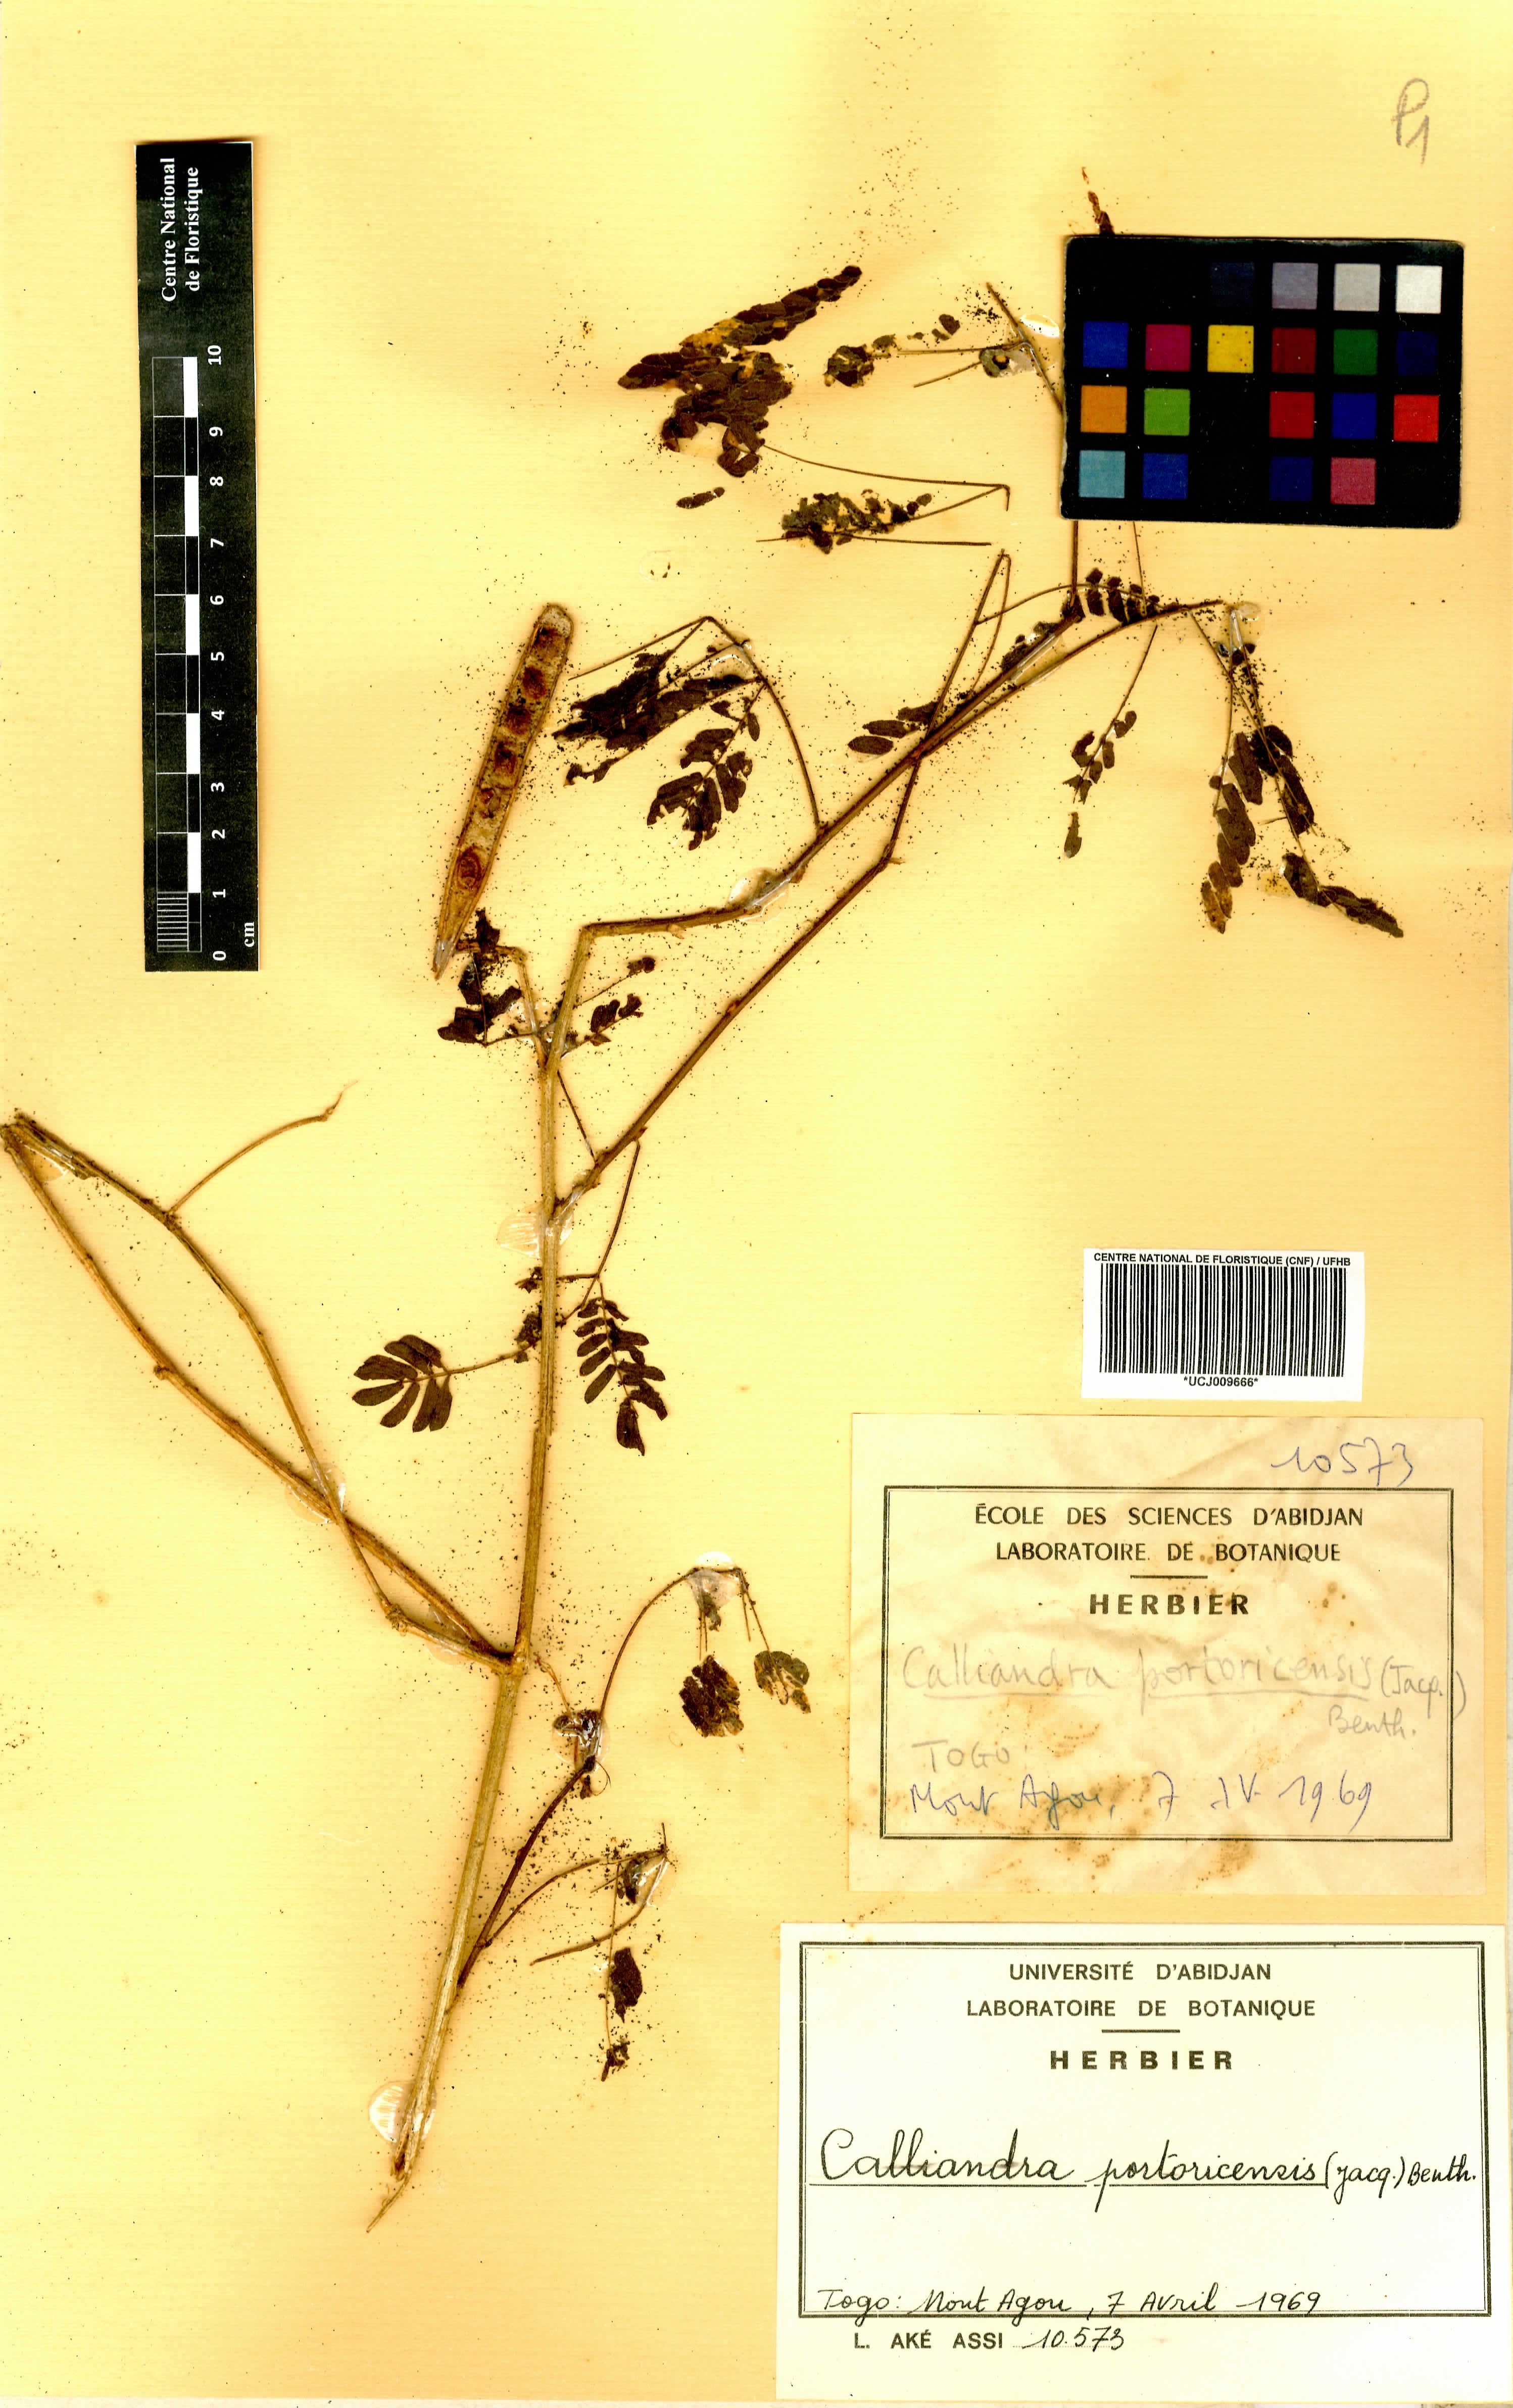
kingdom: Plantae
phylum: Tracheophyta
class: Magnoliopsida
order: Fabales
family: Fabaceae
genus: Zapoteca
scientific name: Zapoteca portoricensis
